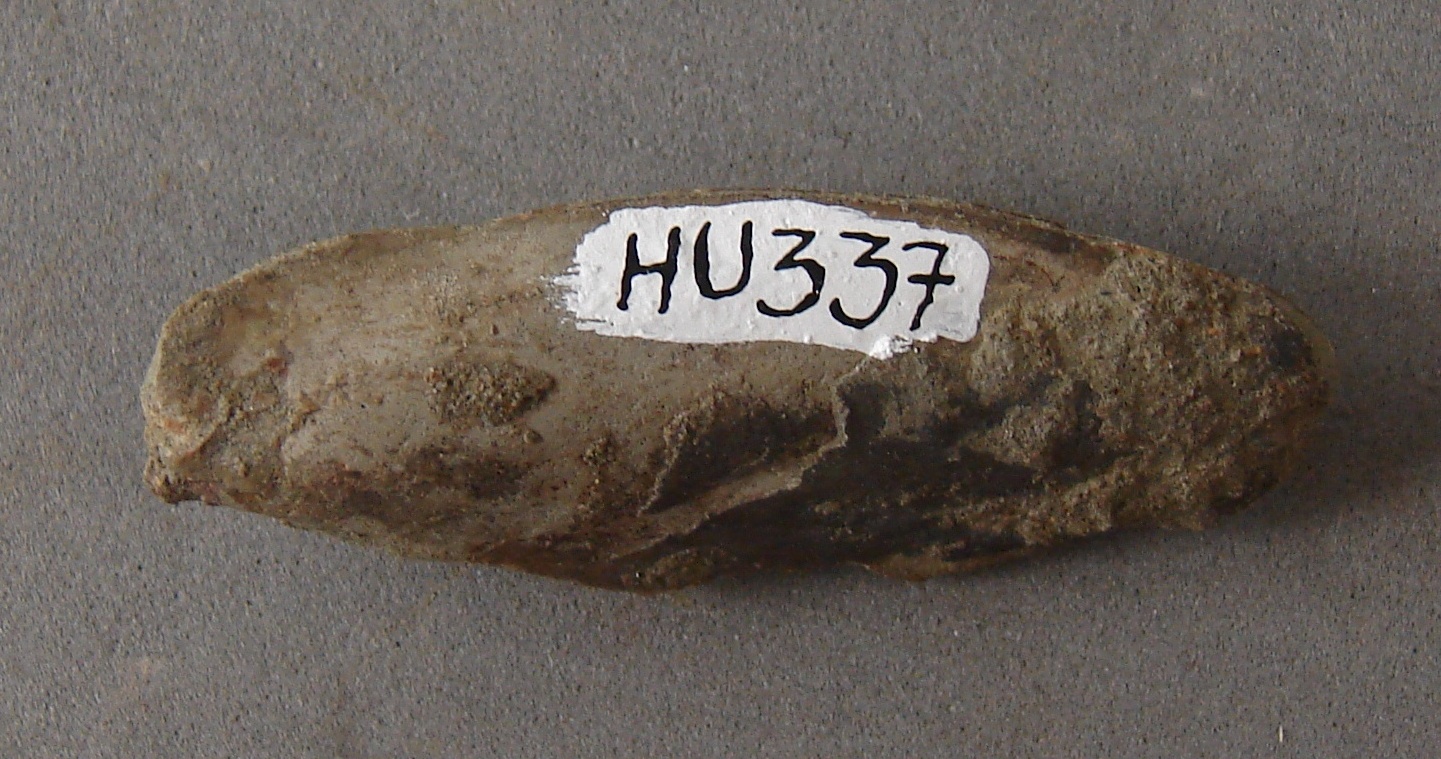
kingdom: Animalia
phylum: Mollusca
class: Bivalvia
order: Mytilida
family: Mytilidae
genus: Modiolus
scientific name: Modiolus
